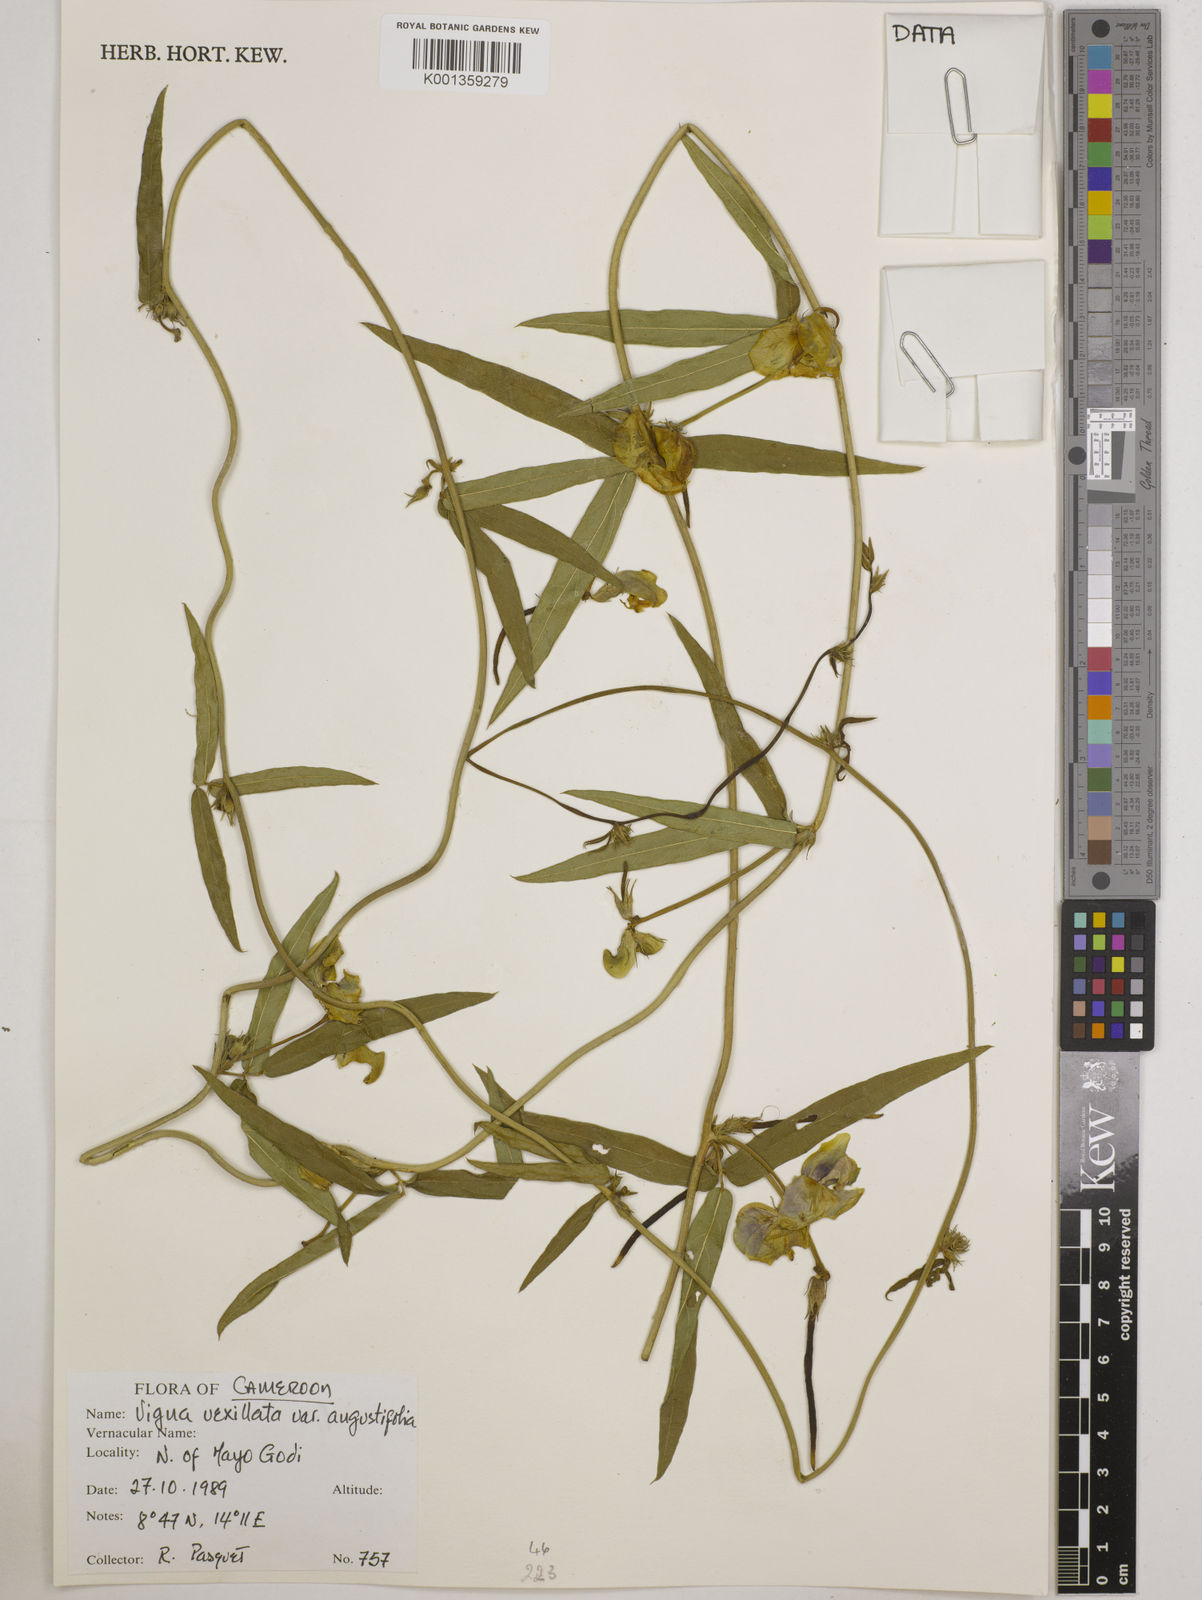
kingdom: Plantae
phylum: Tracheophyta
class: Magnoliopsida
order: Fabales
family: Fabaceae
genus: Vigna
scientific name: Vigna vexillata
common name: Zombi pea
